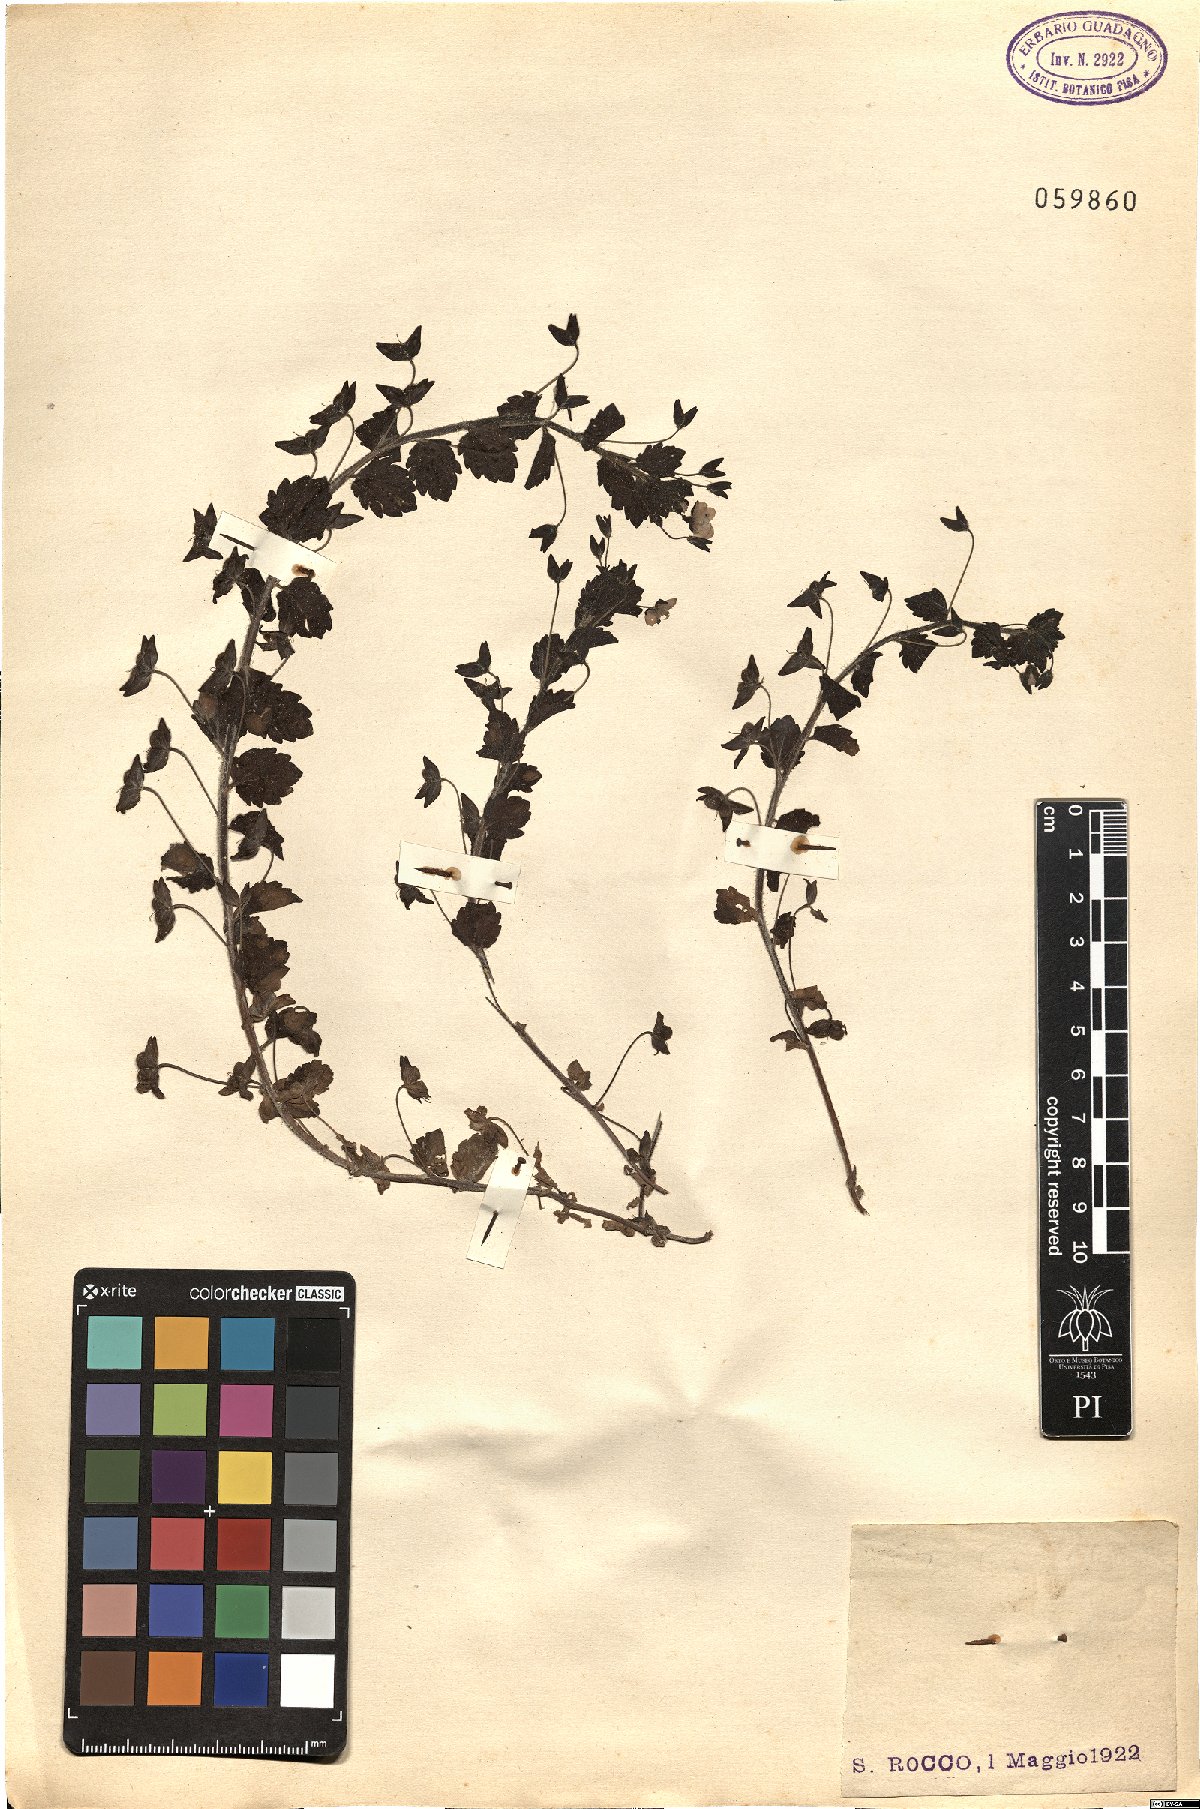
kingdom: Plantae
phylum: Tracheophyta
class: Magnoliopsida
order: Lamiales
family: Plantaginaceae
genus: Veronica
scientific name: Veronica
